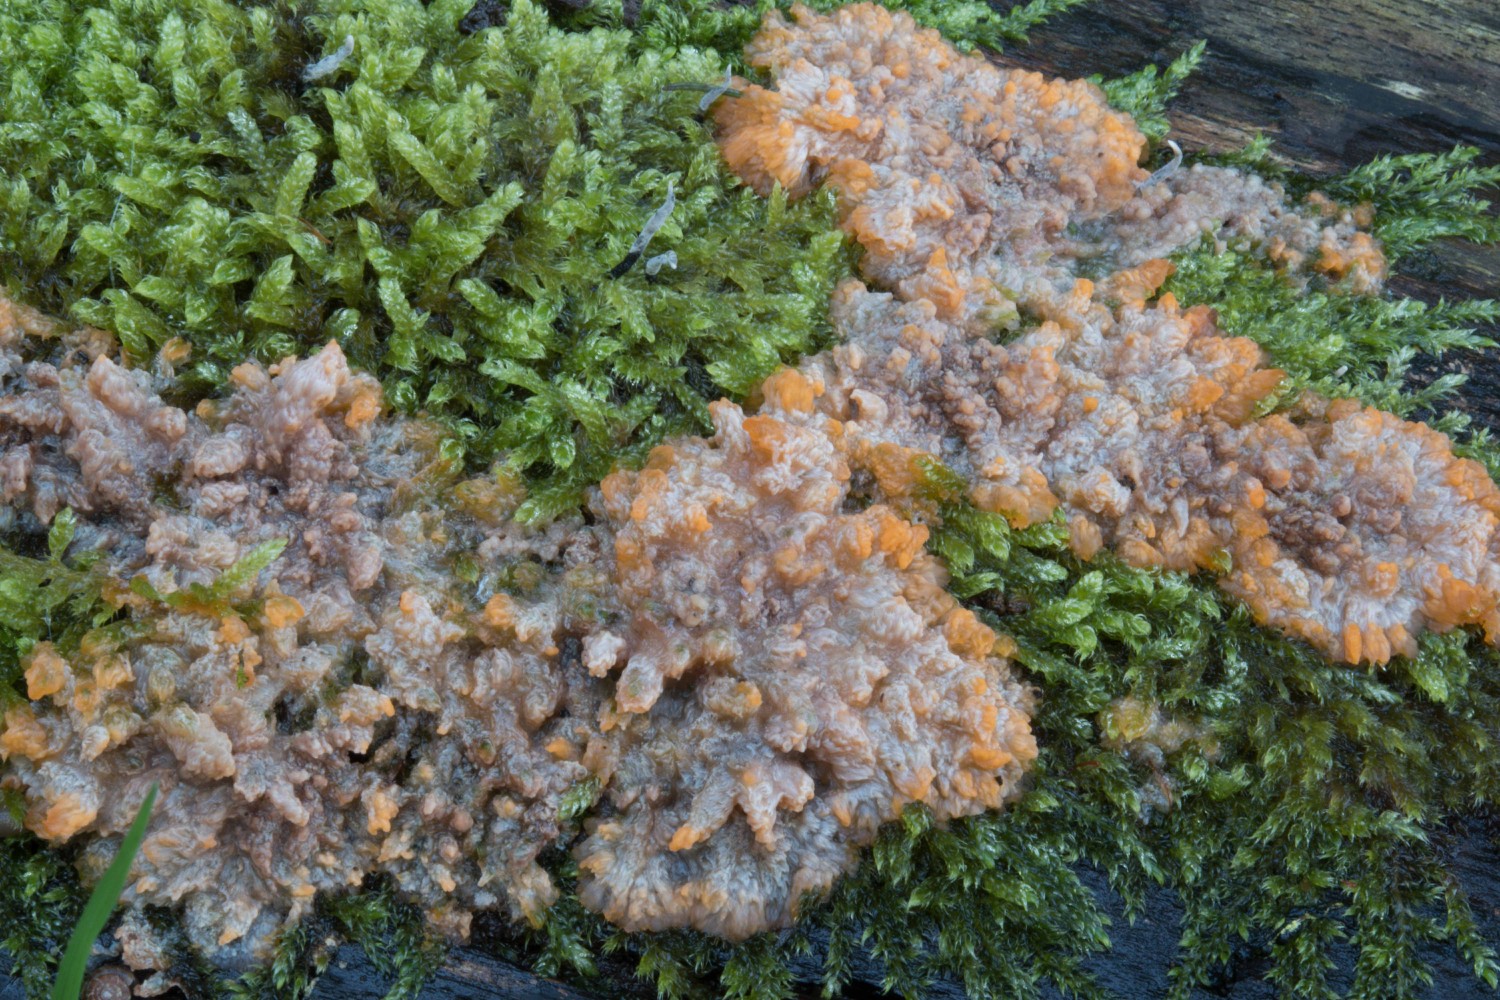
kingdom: Fungi
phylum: Basidiomycota
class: Agaricomycetes
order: Polyporales
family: Meruliaceae
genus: Phlebia
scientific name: Phlebia radiata
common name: stråle-åresvamp
